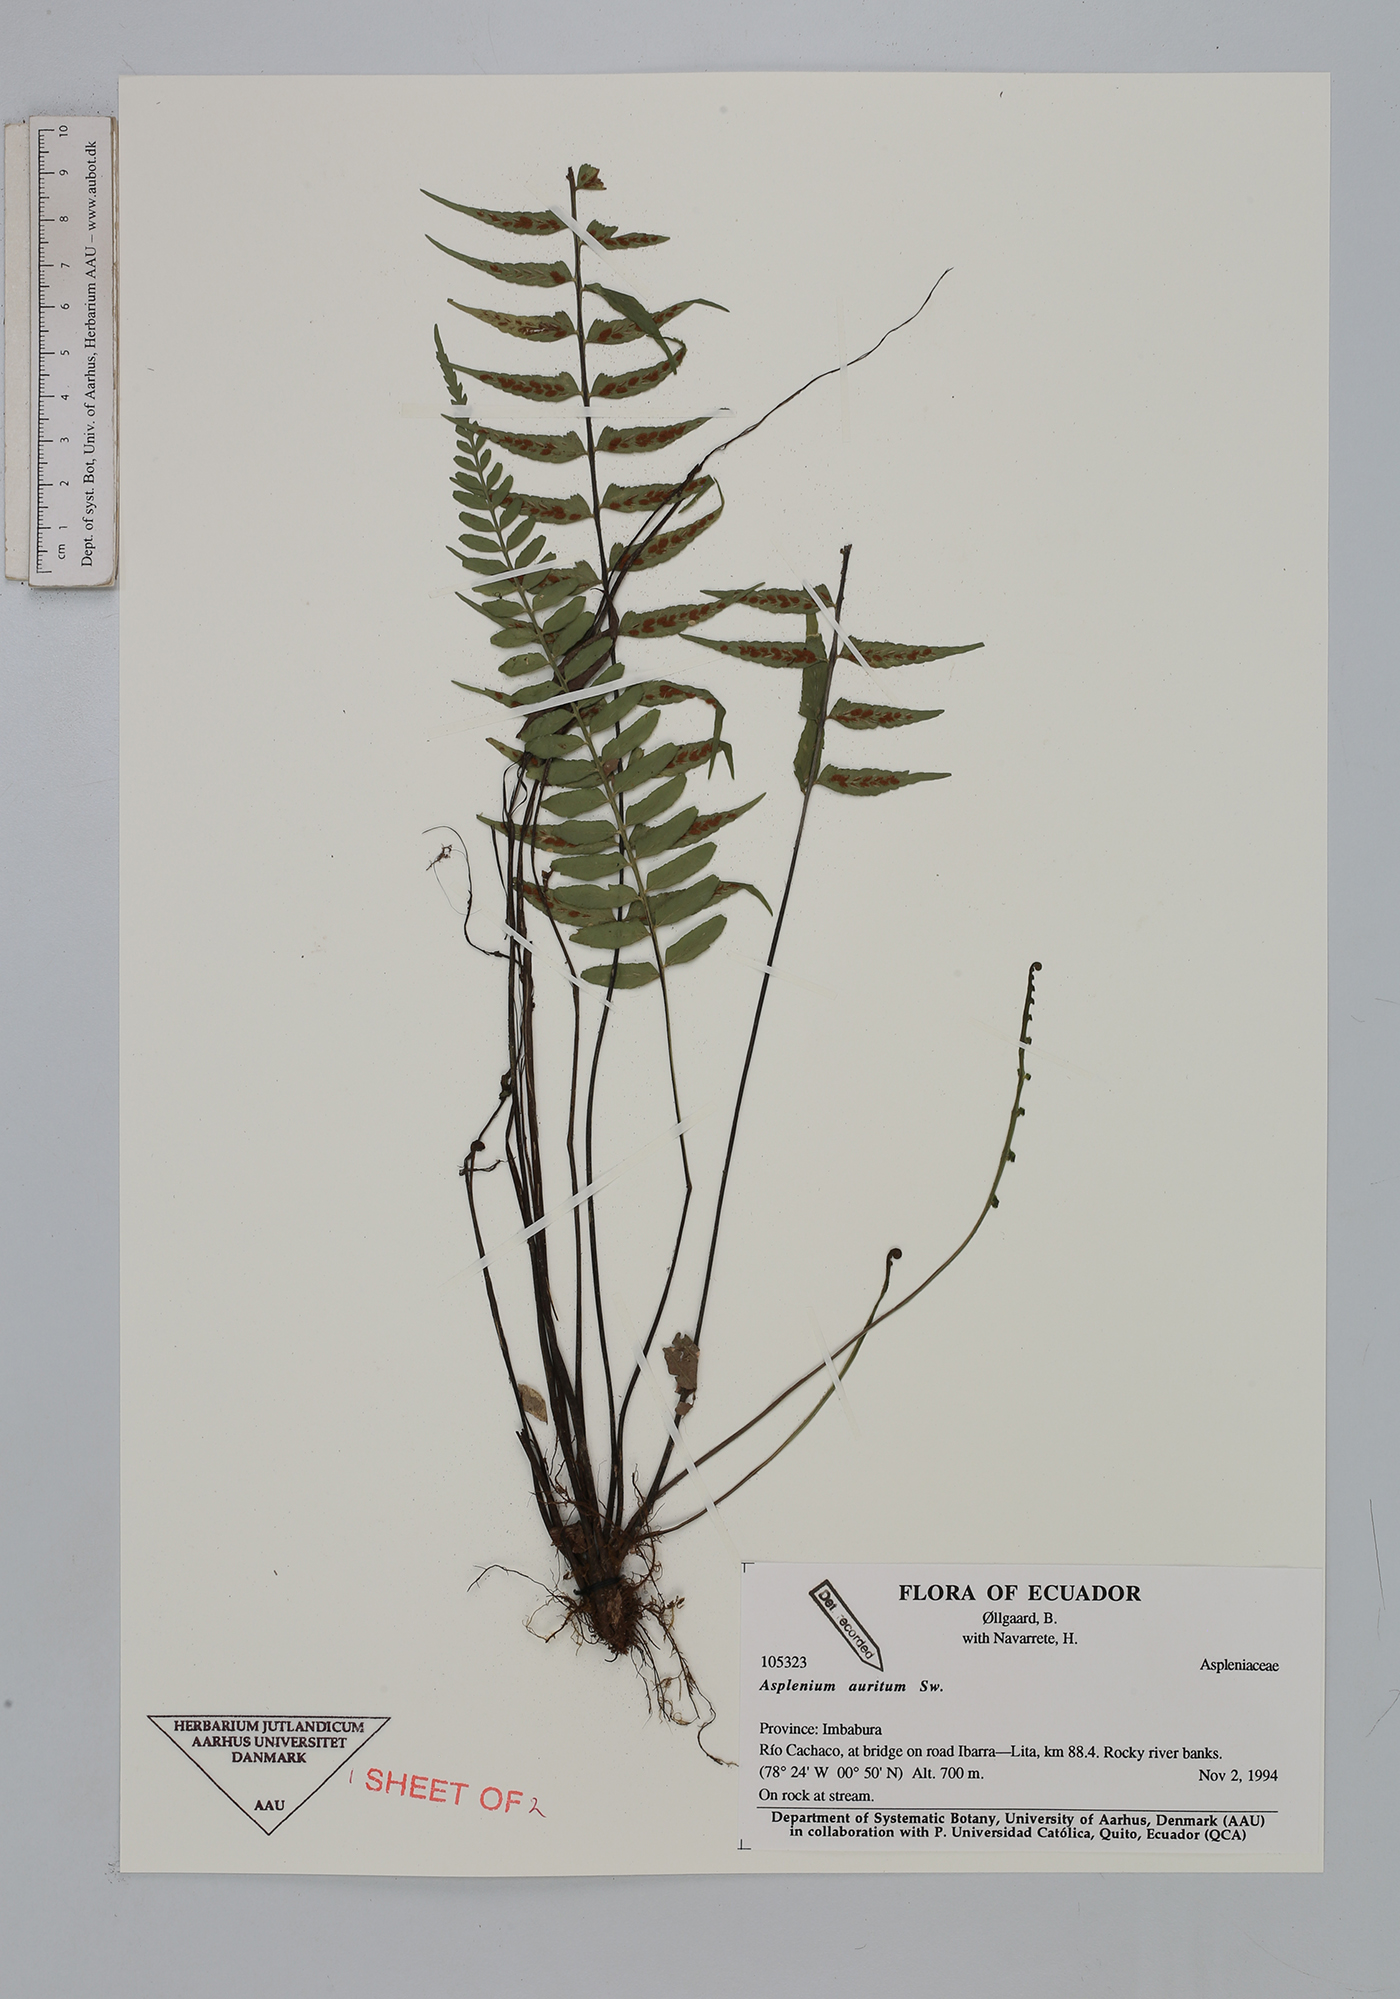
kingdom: Plantae
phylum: Tracheophyta
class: Polypodiopsida
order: Polypodiales
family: Aspleniaceae
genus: Asplenium
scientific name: Asplenium auritum
